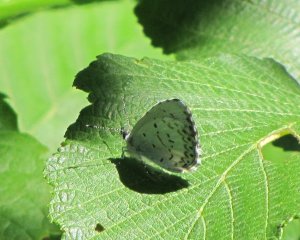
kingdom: Animalia
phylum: Arthropoda
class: Insecta
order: Lepidoptera
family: Lycaenidae
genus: Cyaniris
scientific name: Cyaniris neglecta
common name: Summer Azure
